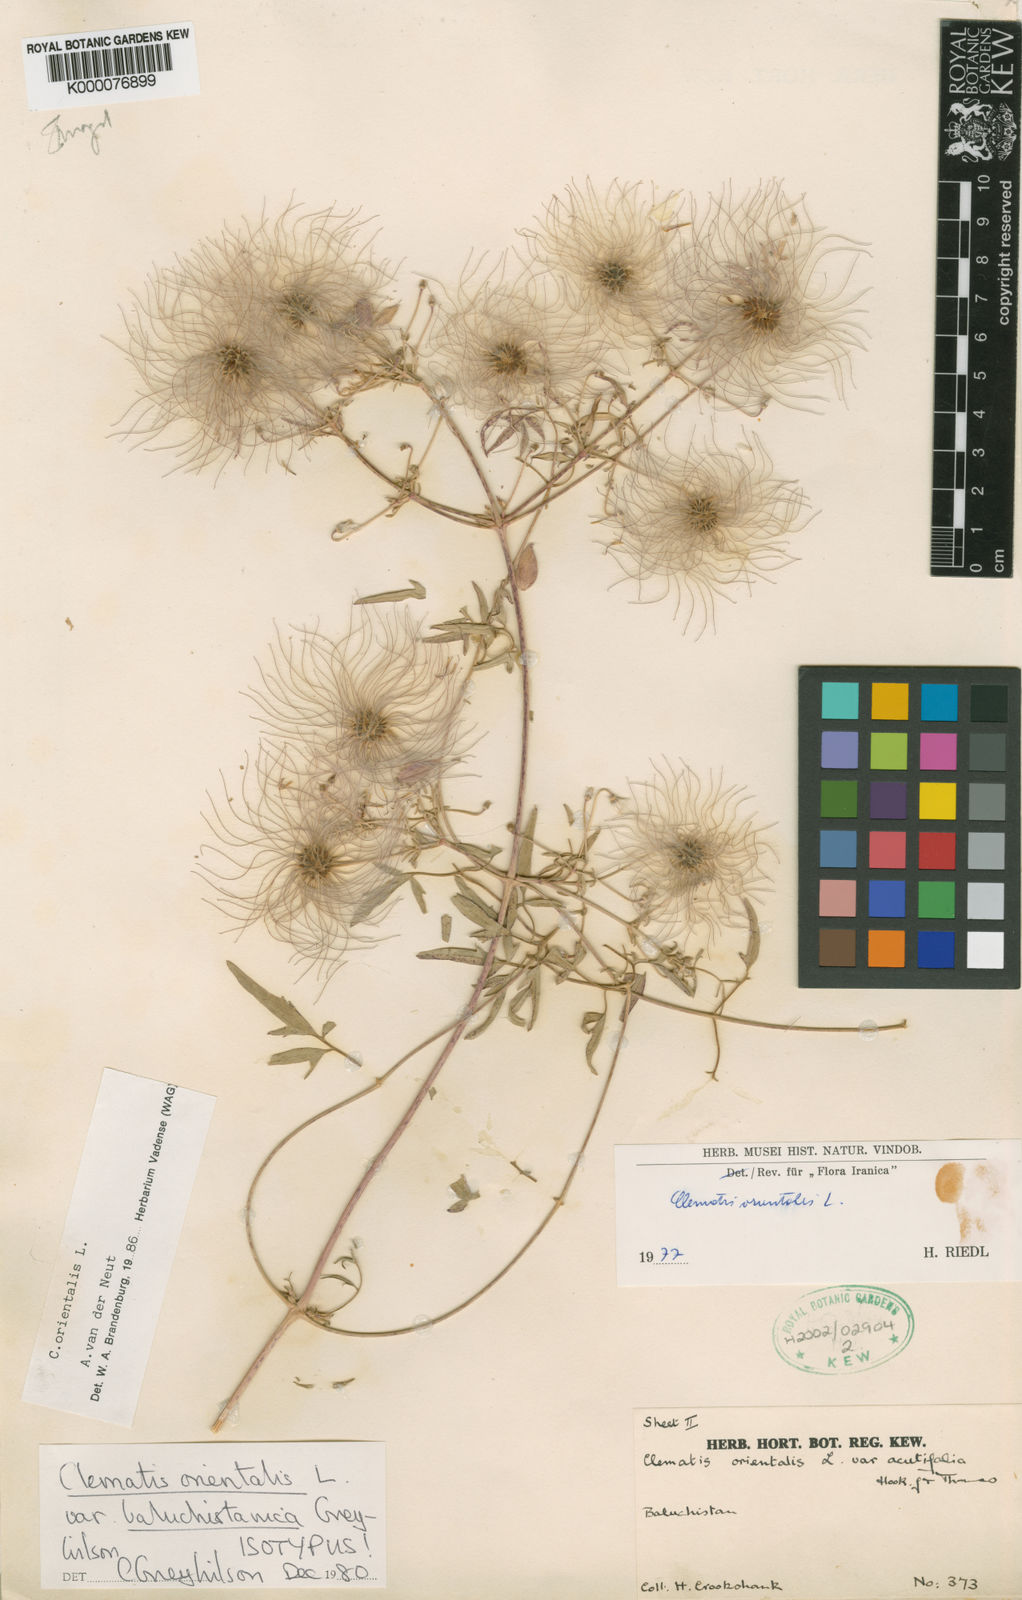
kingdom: Plantae
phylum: Tracheophyta
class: Magnoliopsida
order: Ranunculales
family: Ranunculaceae
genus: Clematis
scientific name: Clematis orientalis
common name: Oriental virgin's-bower
